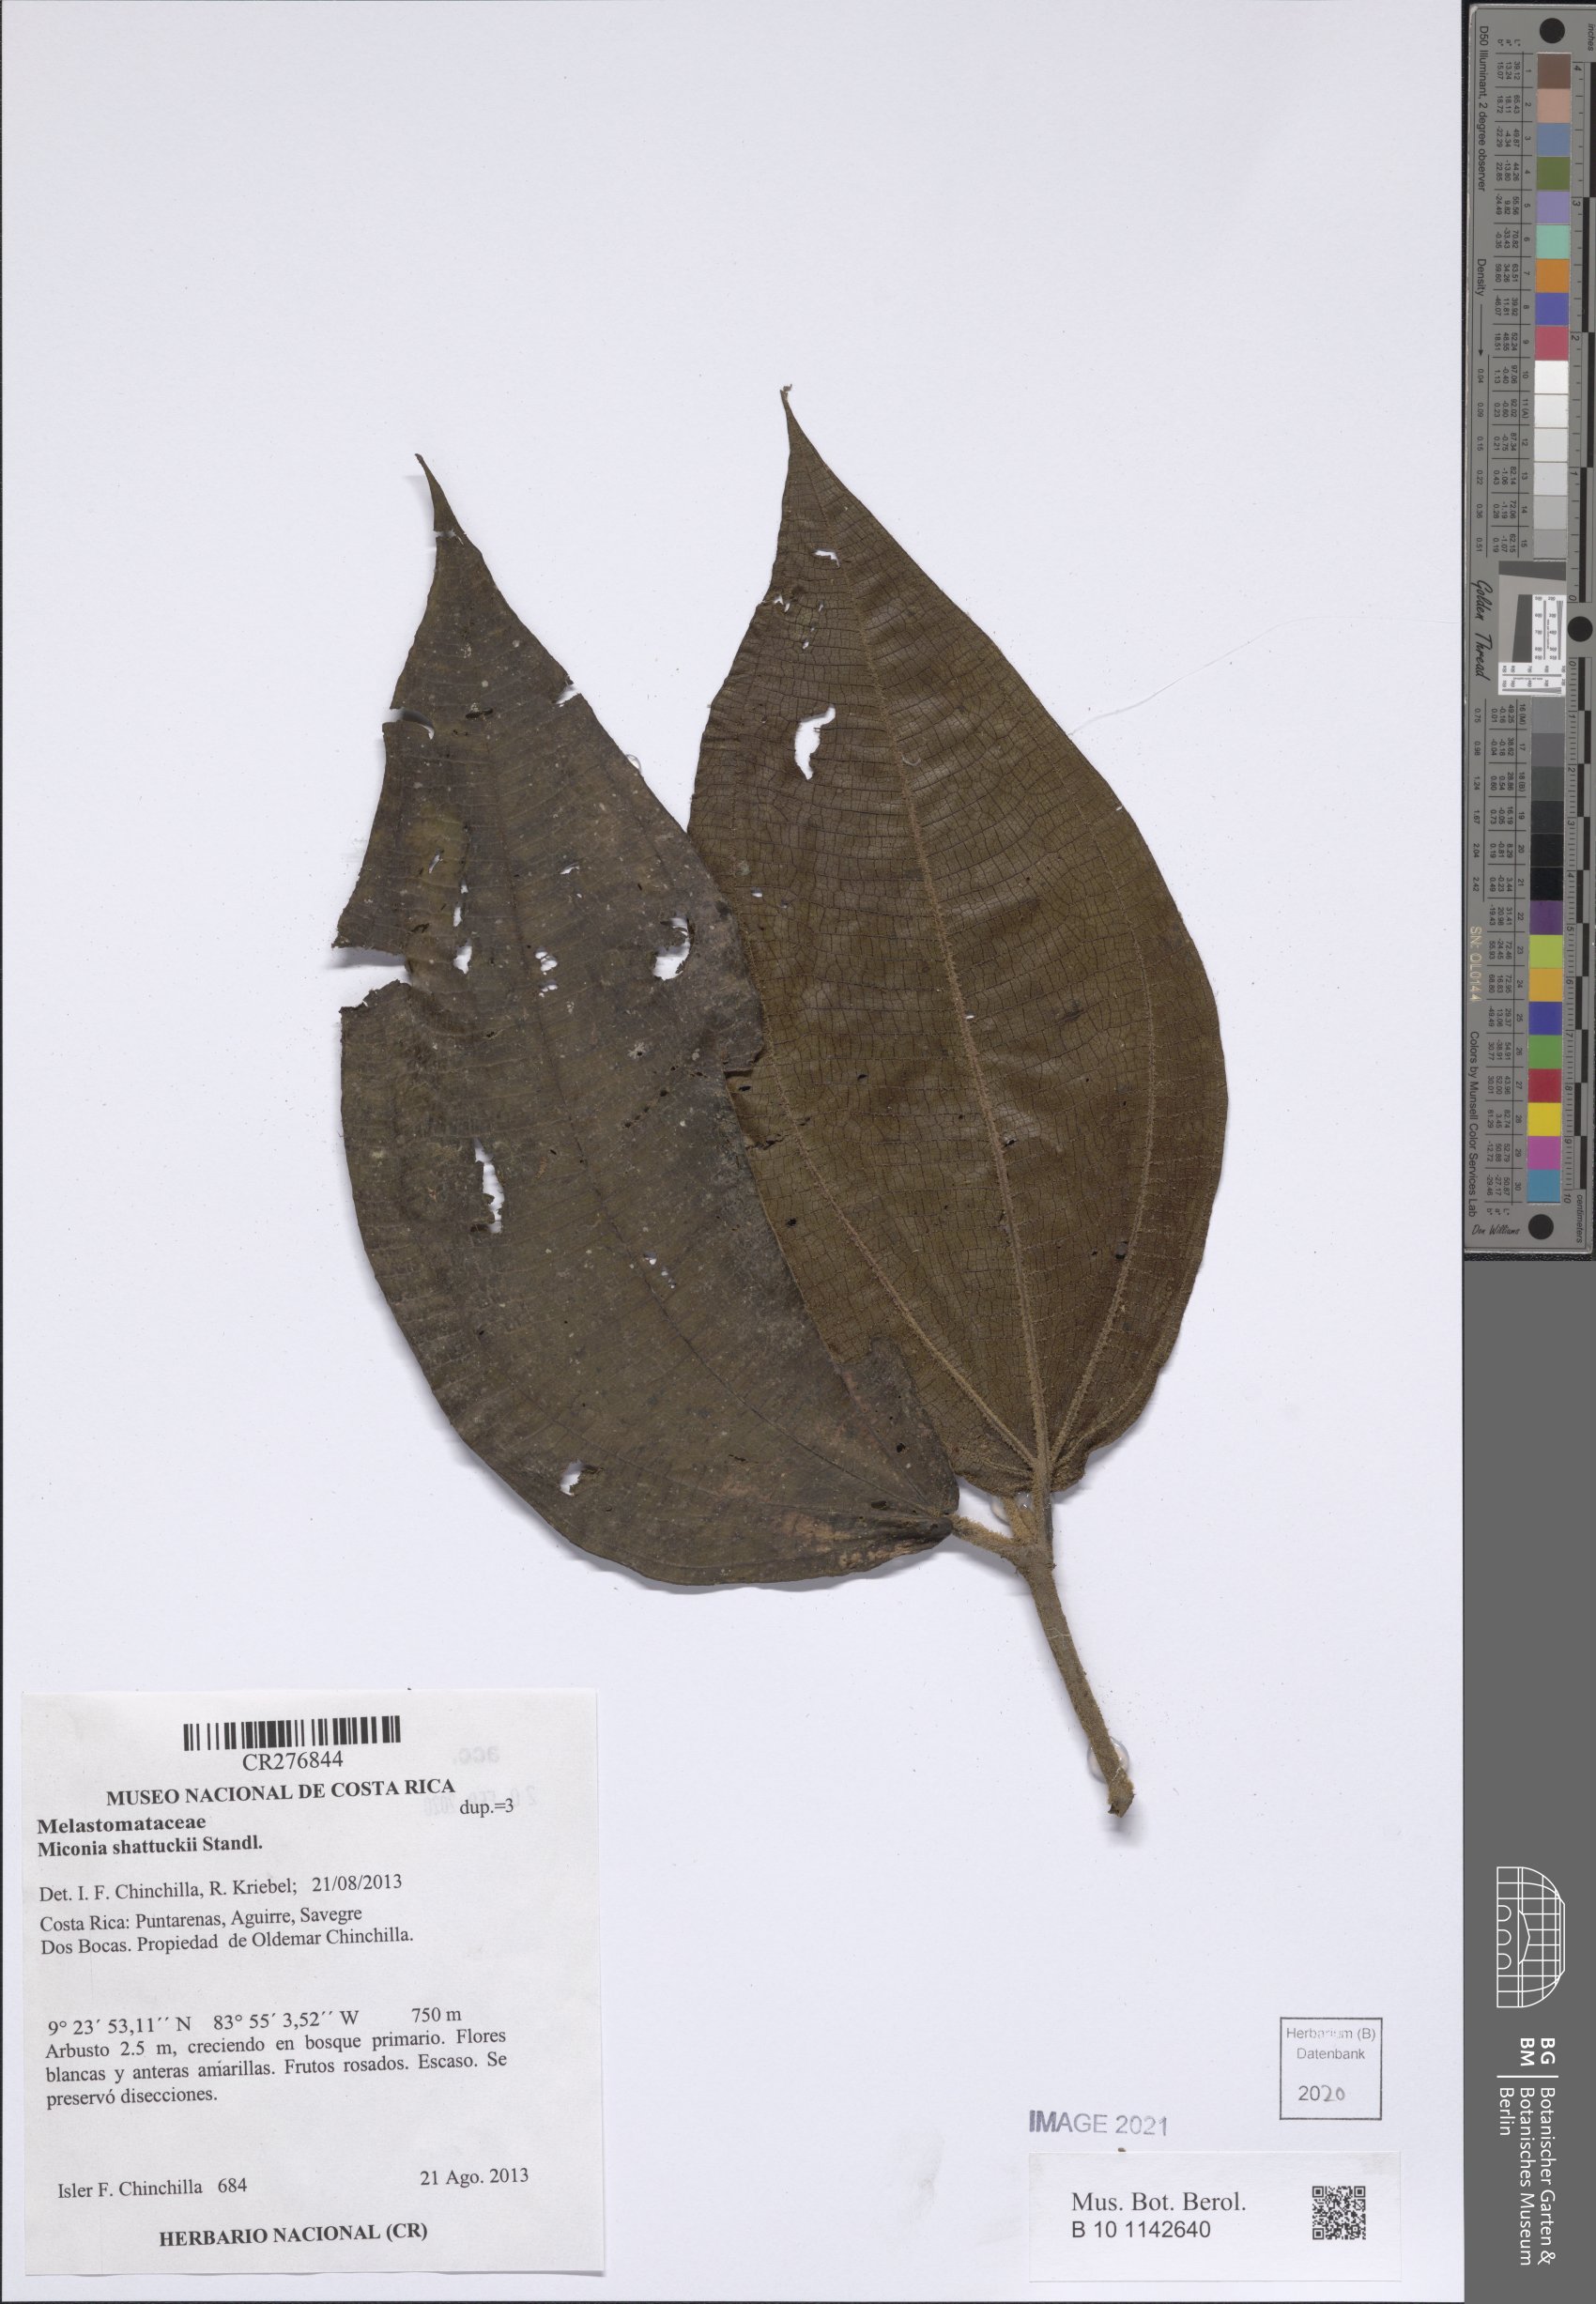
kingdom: Plantae
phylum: Tracheophyta
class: Magnoliopsida
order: Myrtales
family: Melastomataceae
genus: Miconia
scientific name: Miconia
